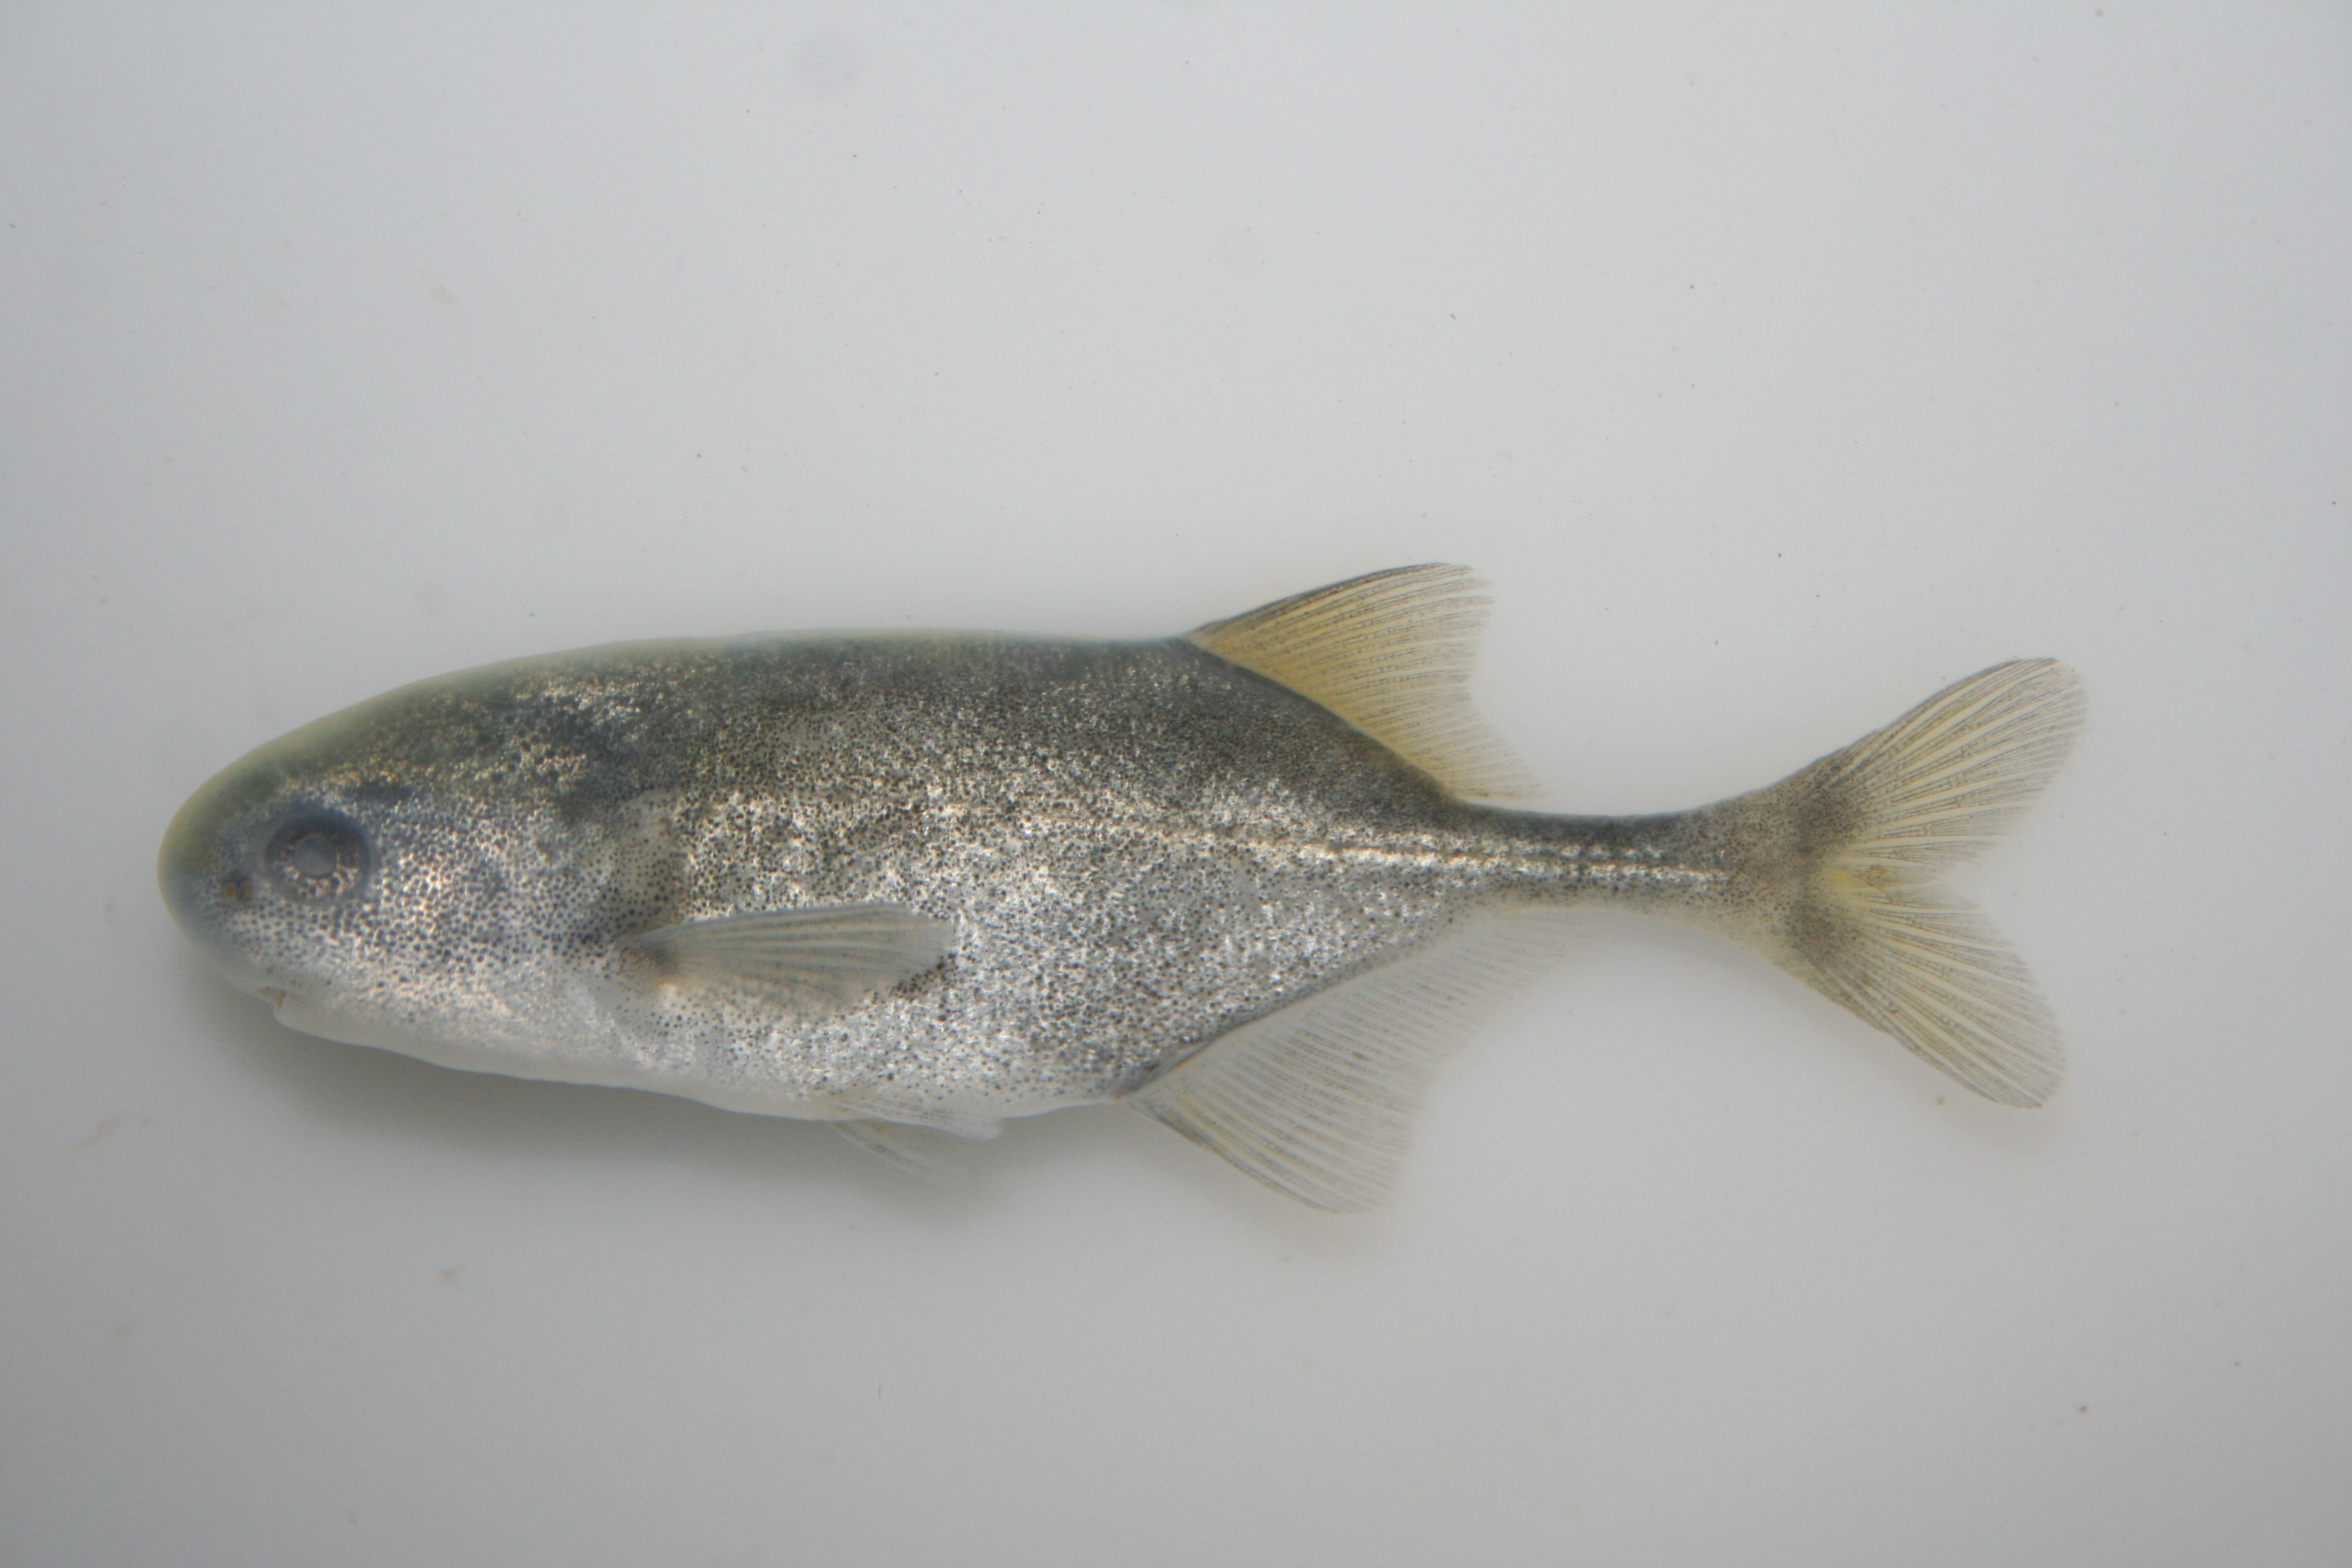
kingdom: Animalia
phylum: Chordata
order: Osteoglossiformes
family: Mormyridae
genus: Petrocephalus
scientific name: Petrocephalus
